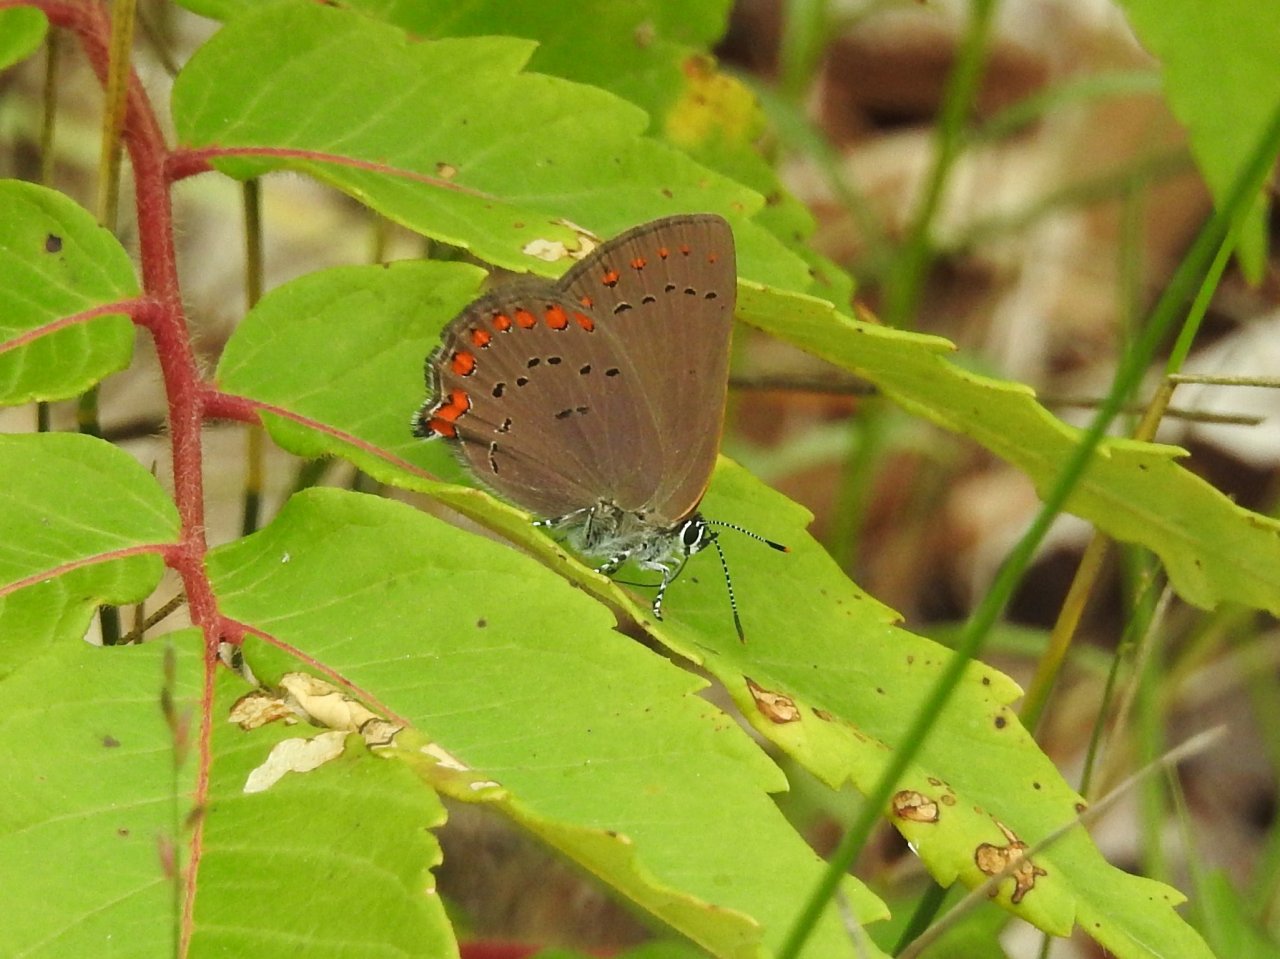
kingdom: Animalia
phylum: Arthropoda
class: Insecta
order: Lepidoptera
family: Lycaenidae
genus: Harkenclenus
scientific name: Harkenclenus titus
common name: Coral Hairstreak
